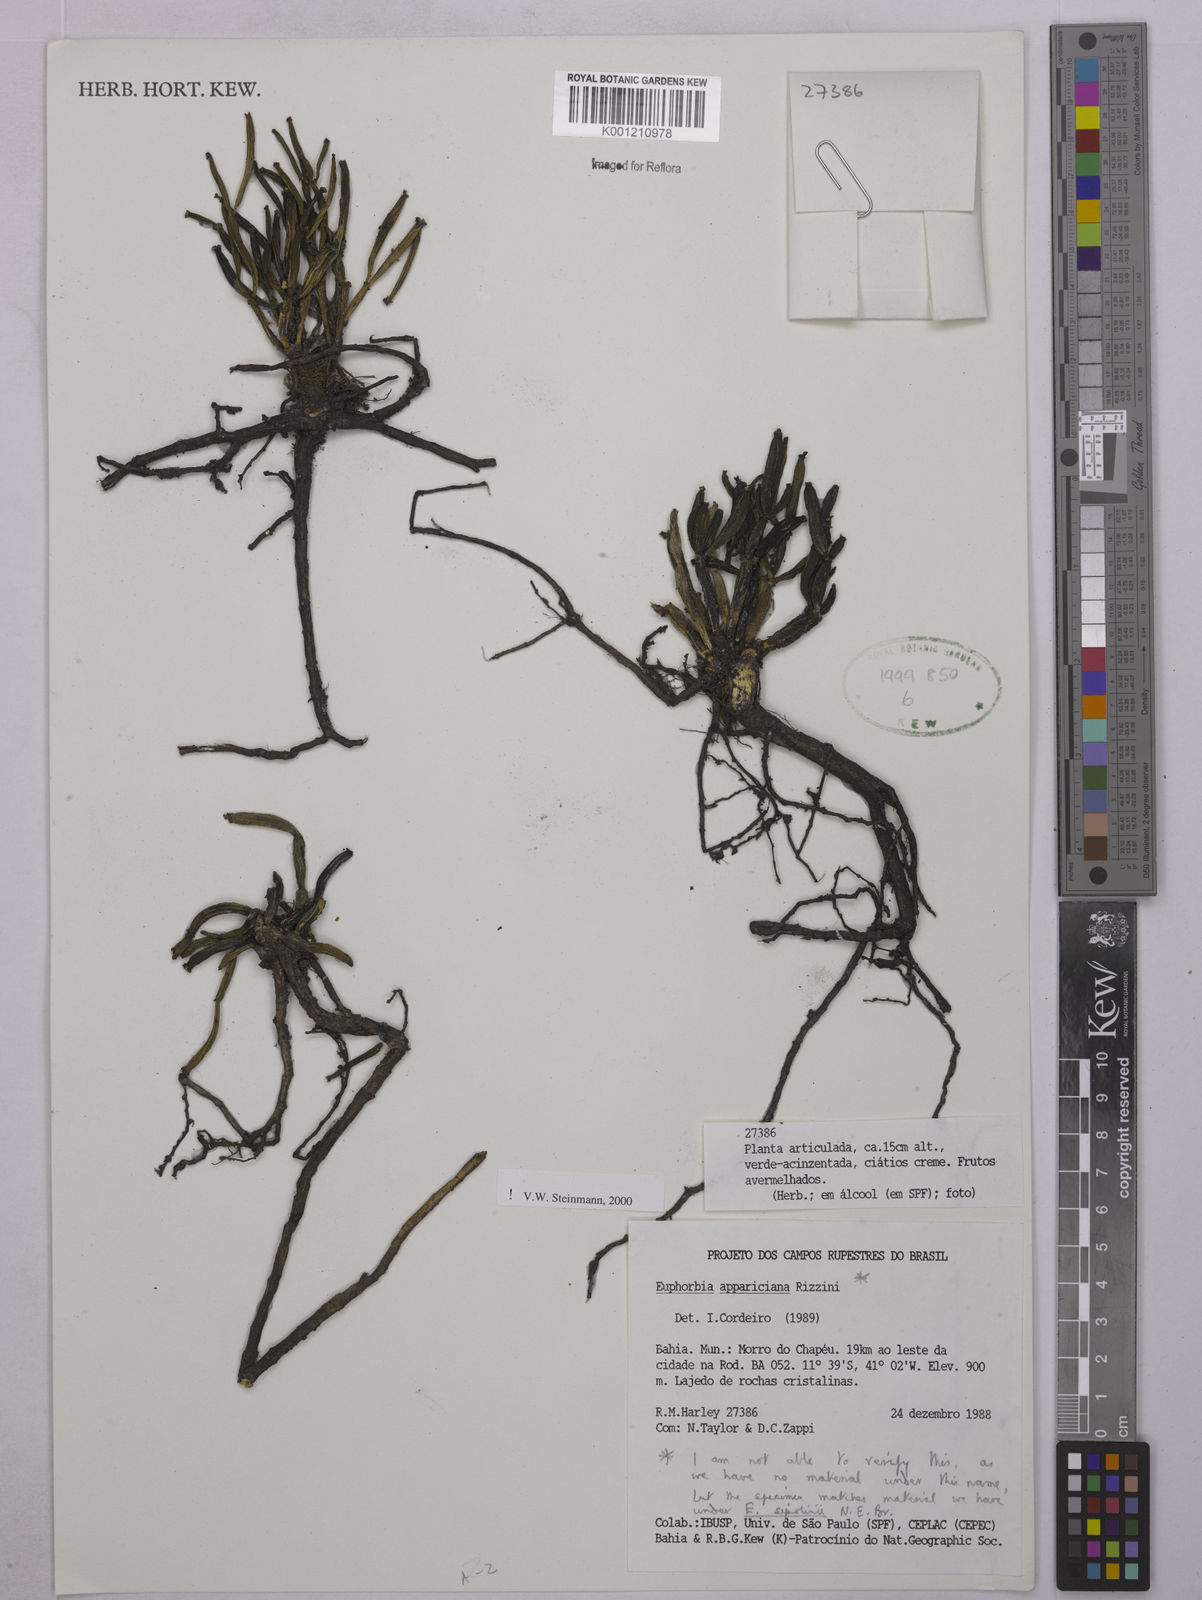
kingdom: Plantae
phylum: Tracheophyta
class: Magnoliopsida
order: Malpighiales
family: Euphorbiaceae
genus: Euphorbia
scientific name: Euphorbia appariciana
